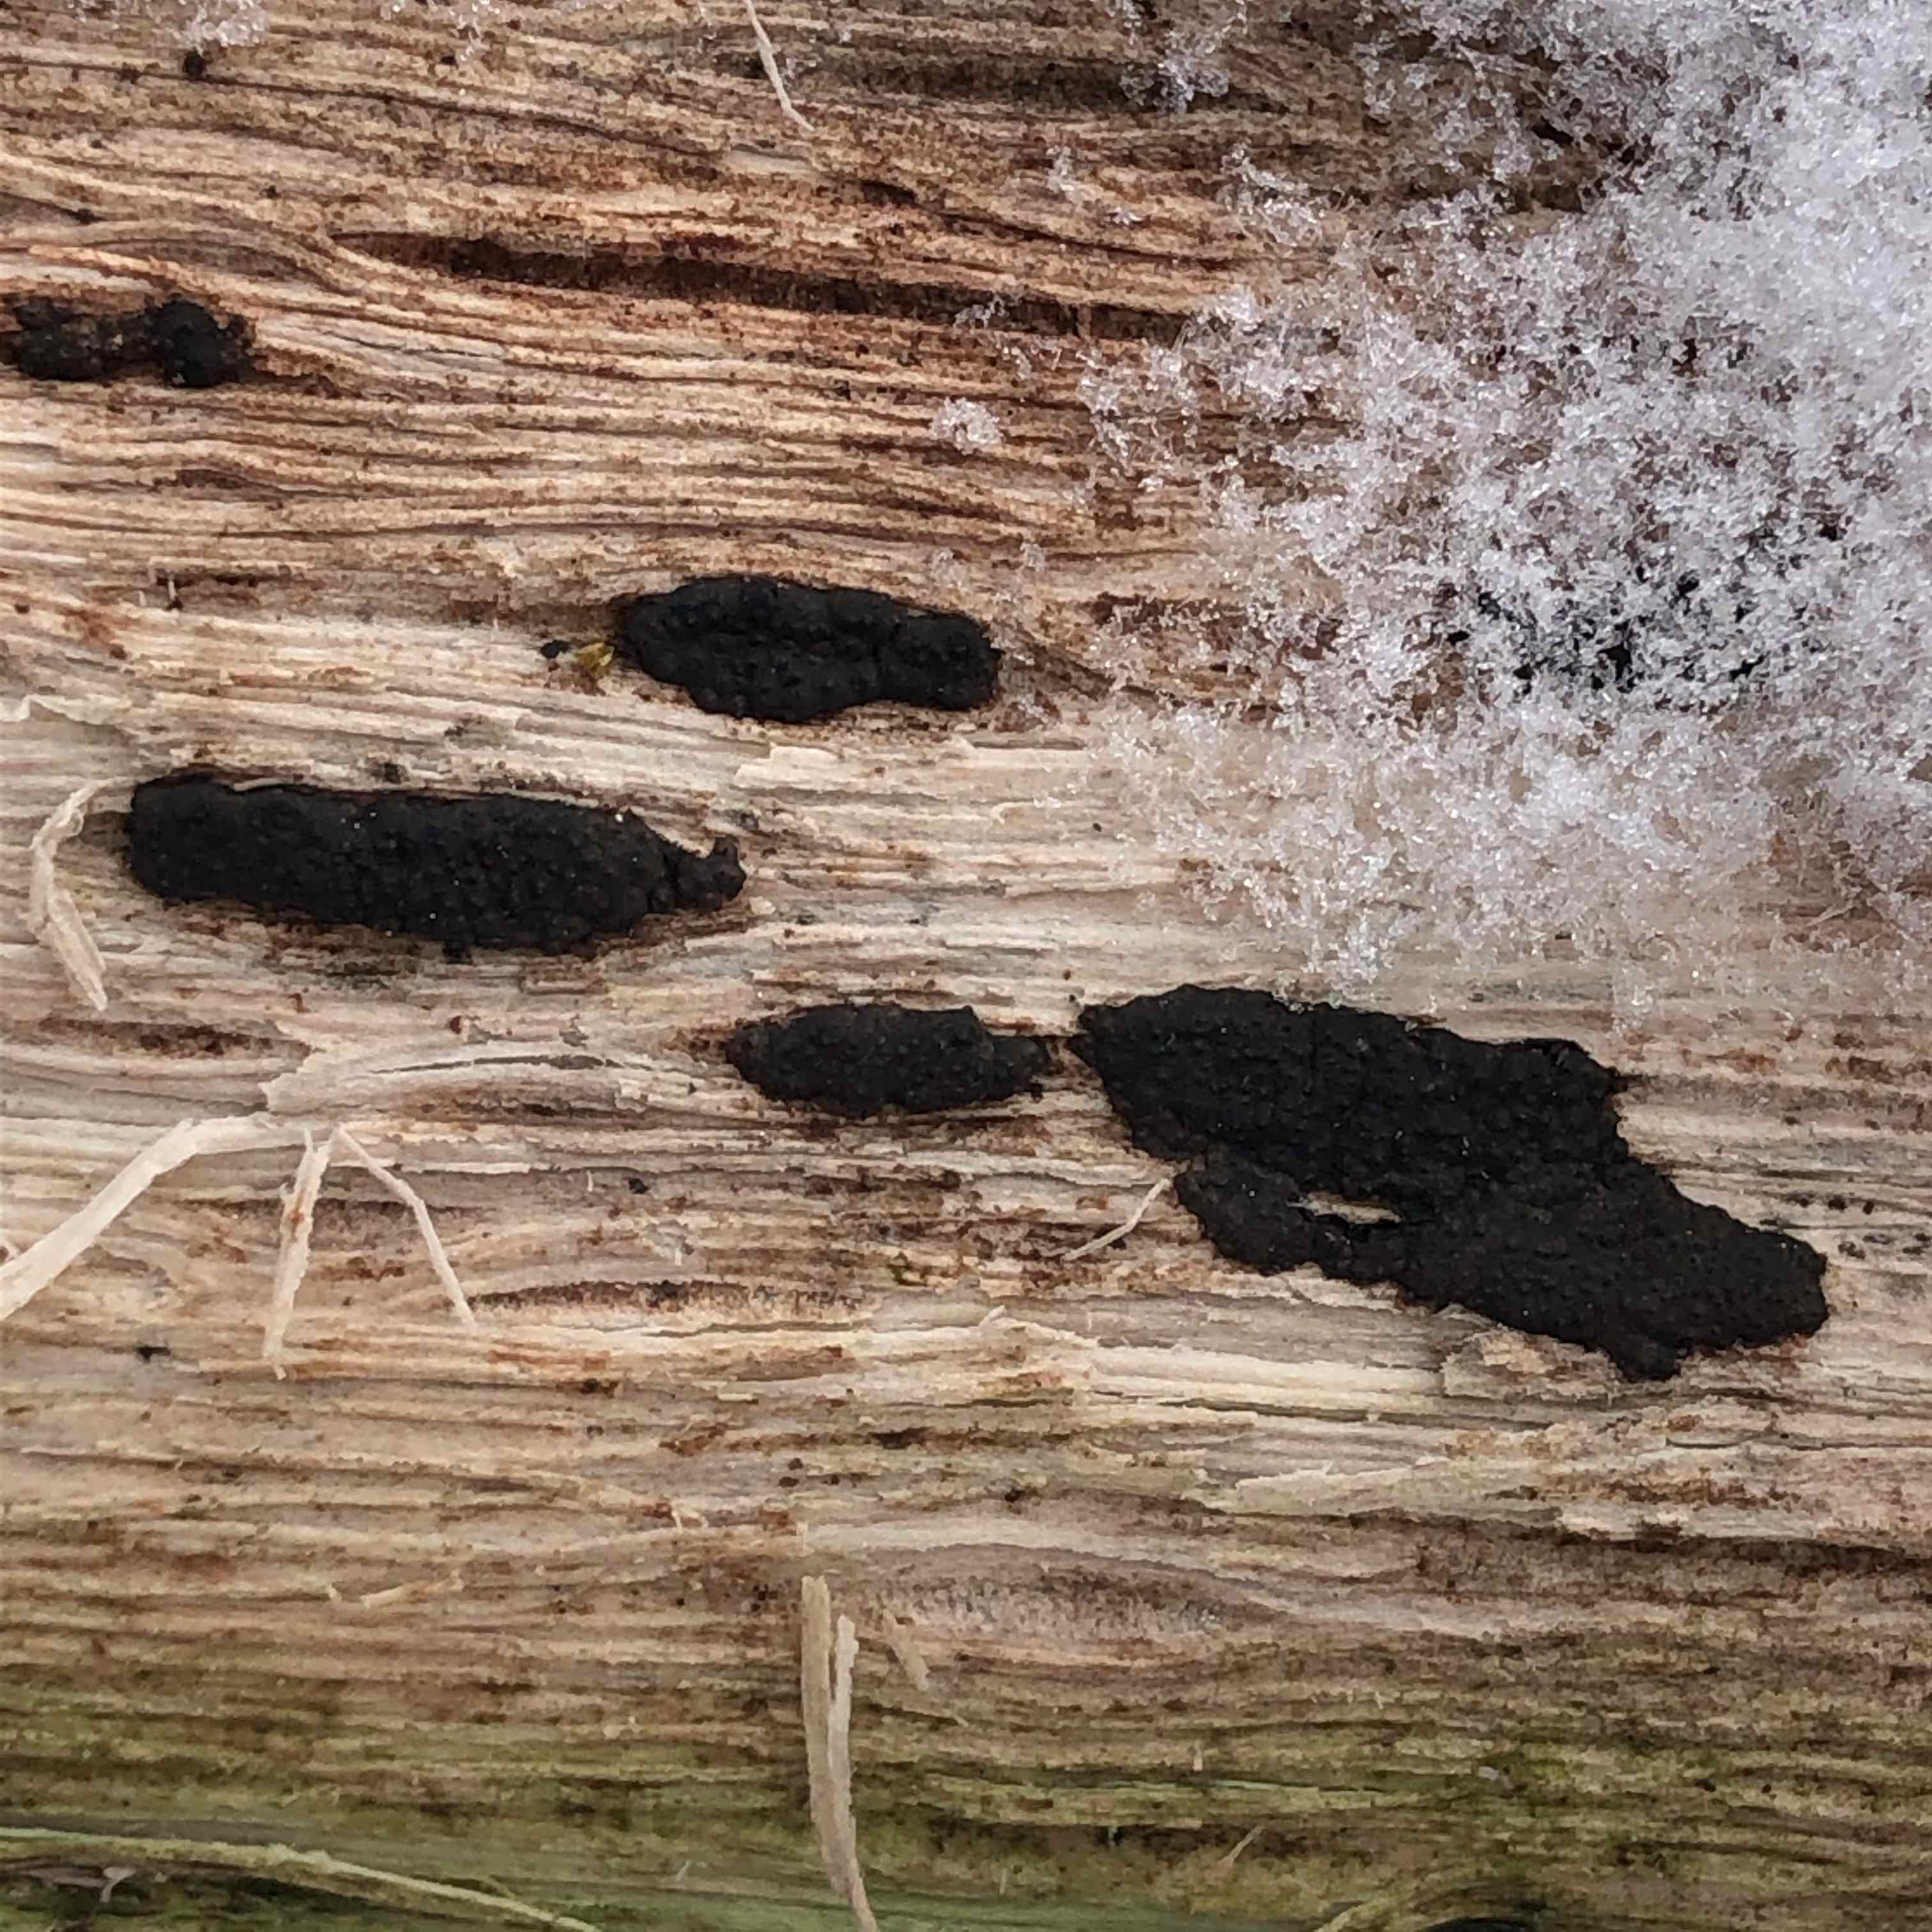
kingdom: Fungi
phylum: Ascomycota
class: Sordariomycetes
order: Xylariales
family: Xylariaceae
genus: Nemania
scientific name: Nemania
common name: kuldyne
